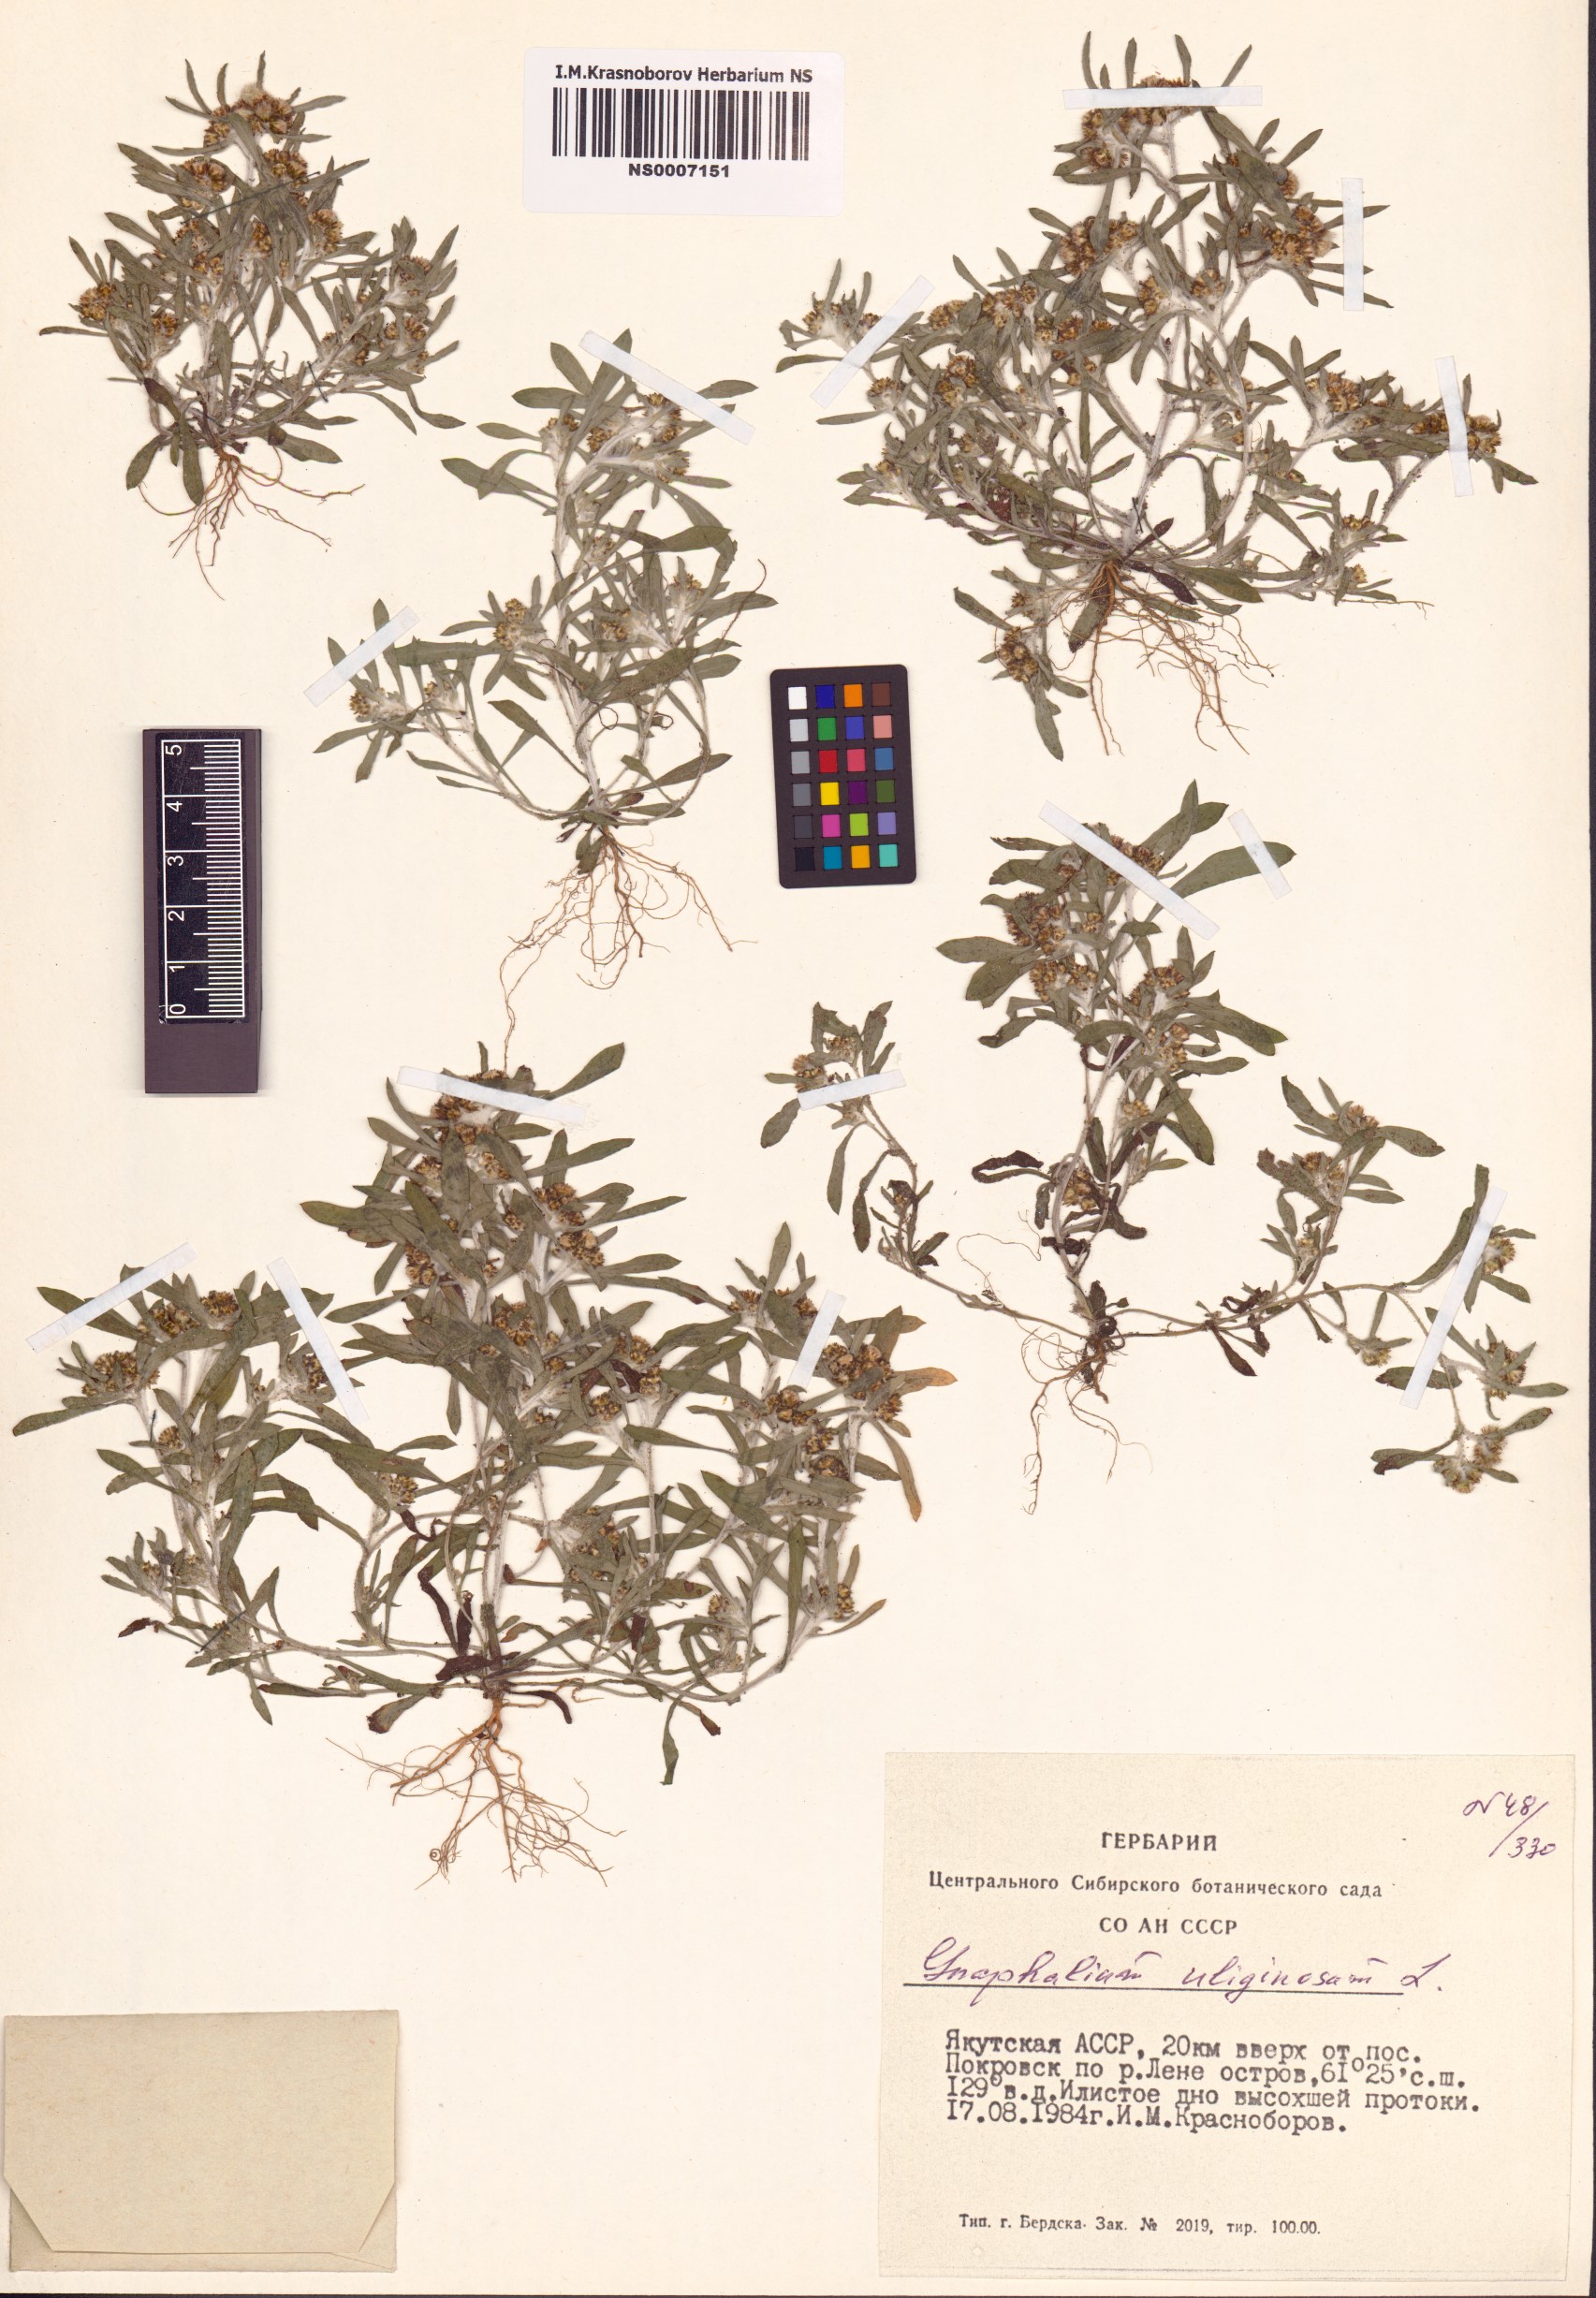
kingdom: Plantae
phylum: Tracheophyta
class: Magnoliopsida
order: Asterales
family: Asteraceae
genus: Gnaphalium
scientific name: Gnaphalium uliginosum
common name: Marsh cudweed
